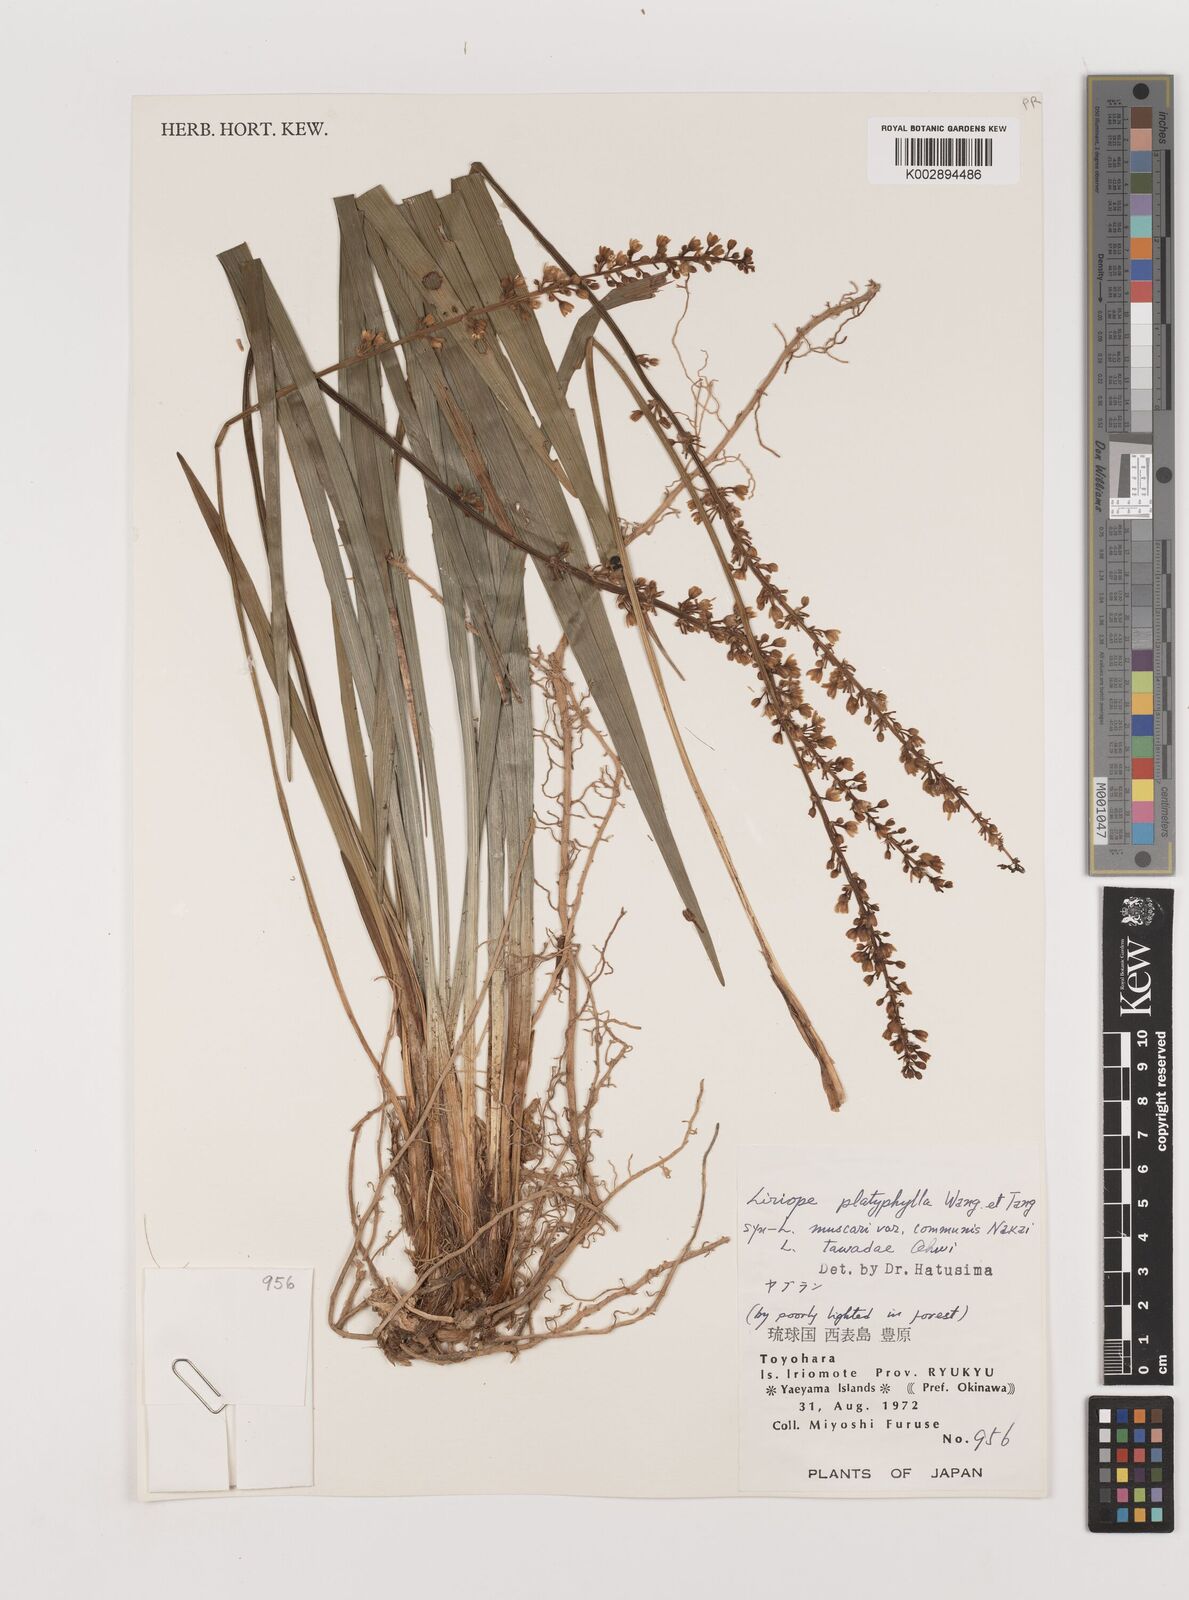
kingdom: Plantae
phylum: Tracheophyta
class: Liliopsida
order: Asparagales
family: Asparagaceae
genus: Liriope
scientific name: Liriope muscari
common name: Big blue lilyturf
